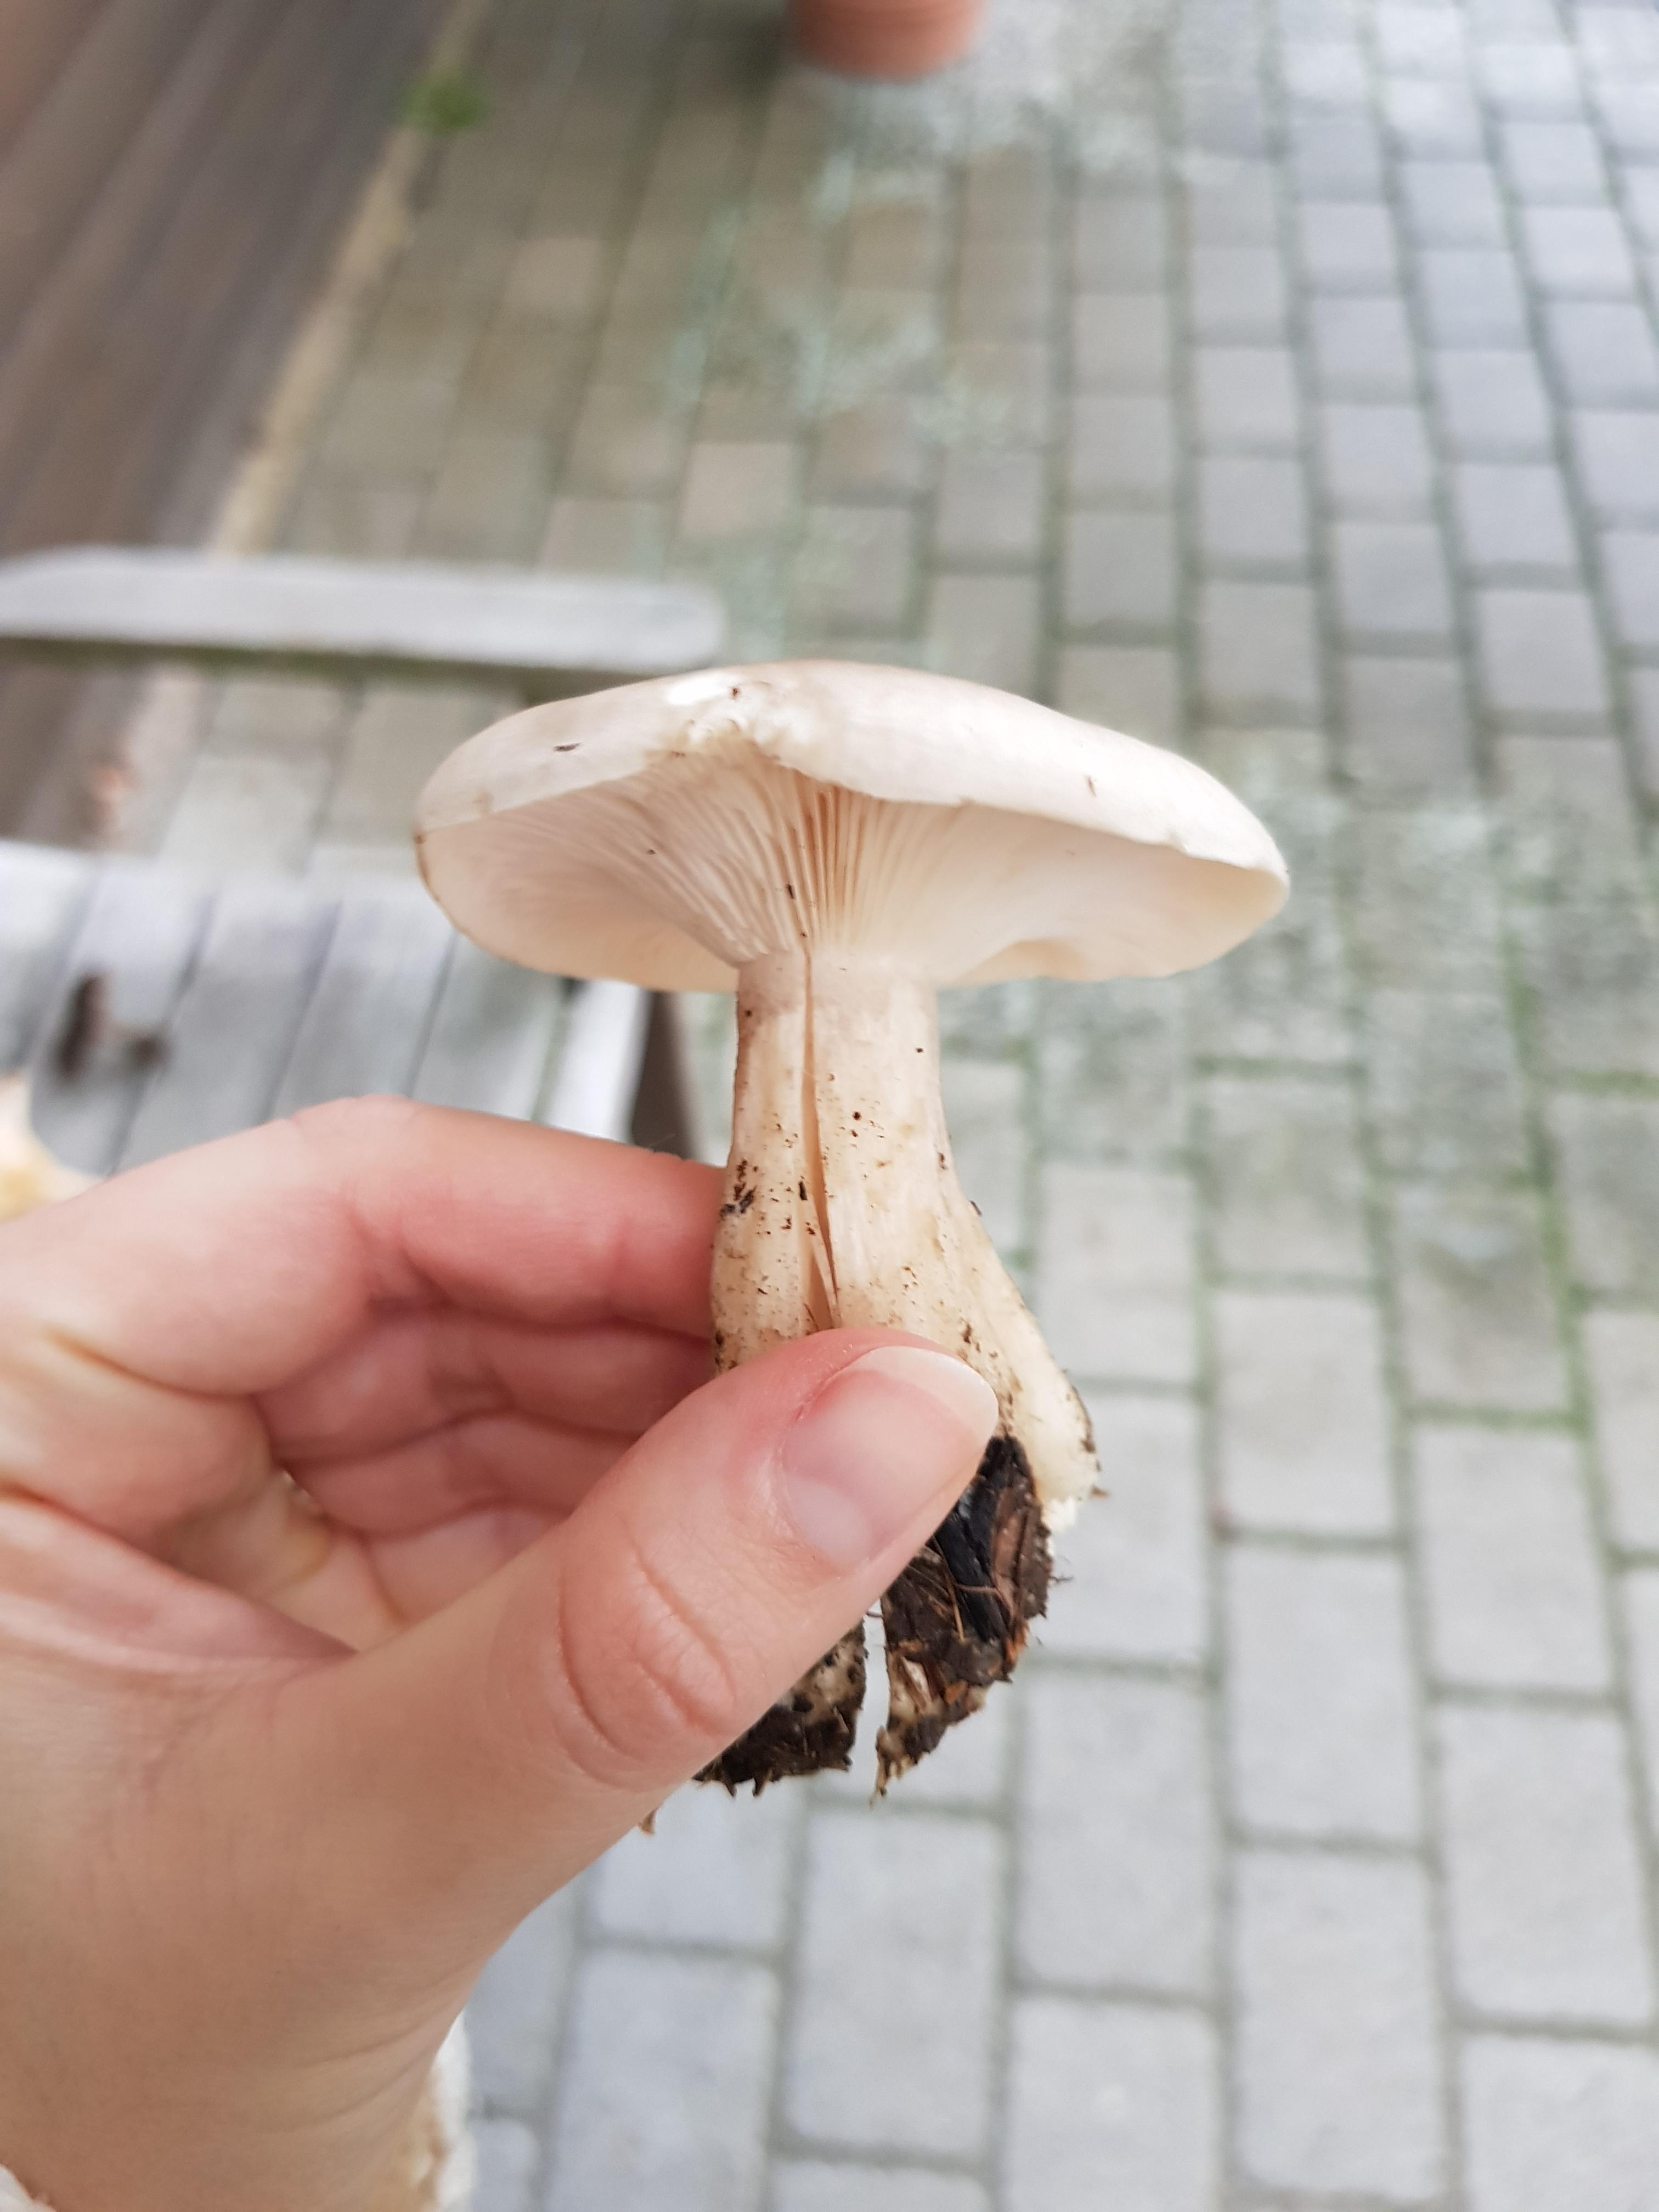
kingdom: Fungi
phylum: Basidiomycota
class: Agaricomycetes
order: Agaricales
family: Tricholomataceae
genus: Clitocybe
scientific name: Clitocybe nebularis
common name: tåge-tragthat
